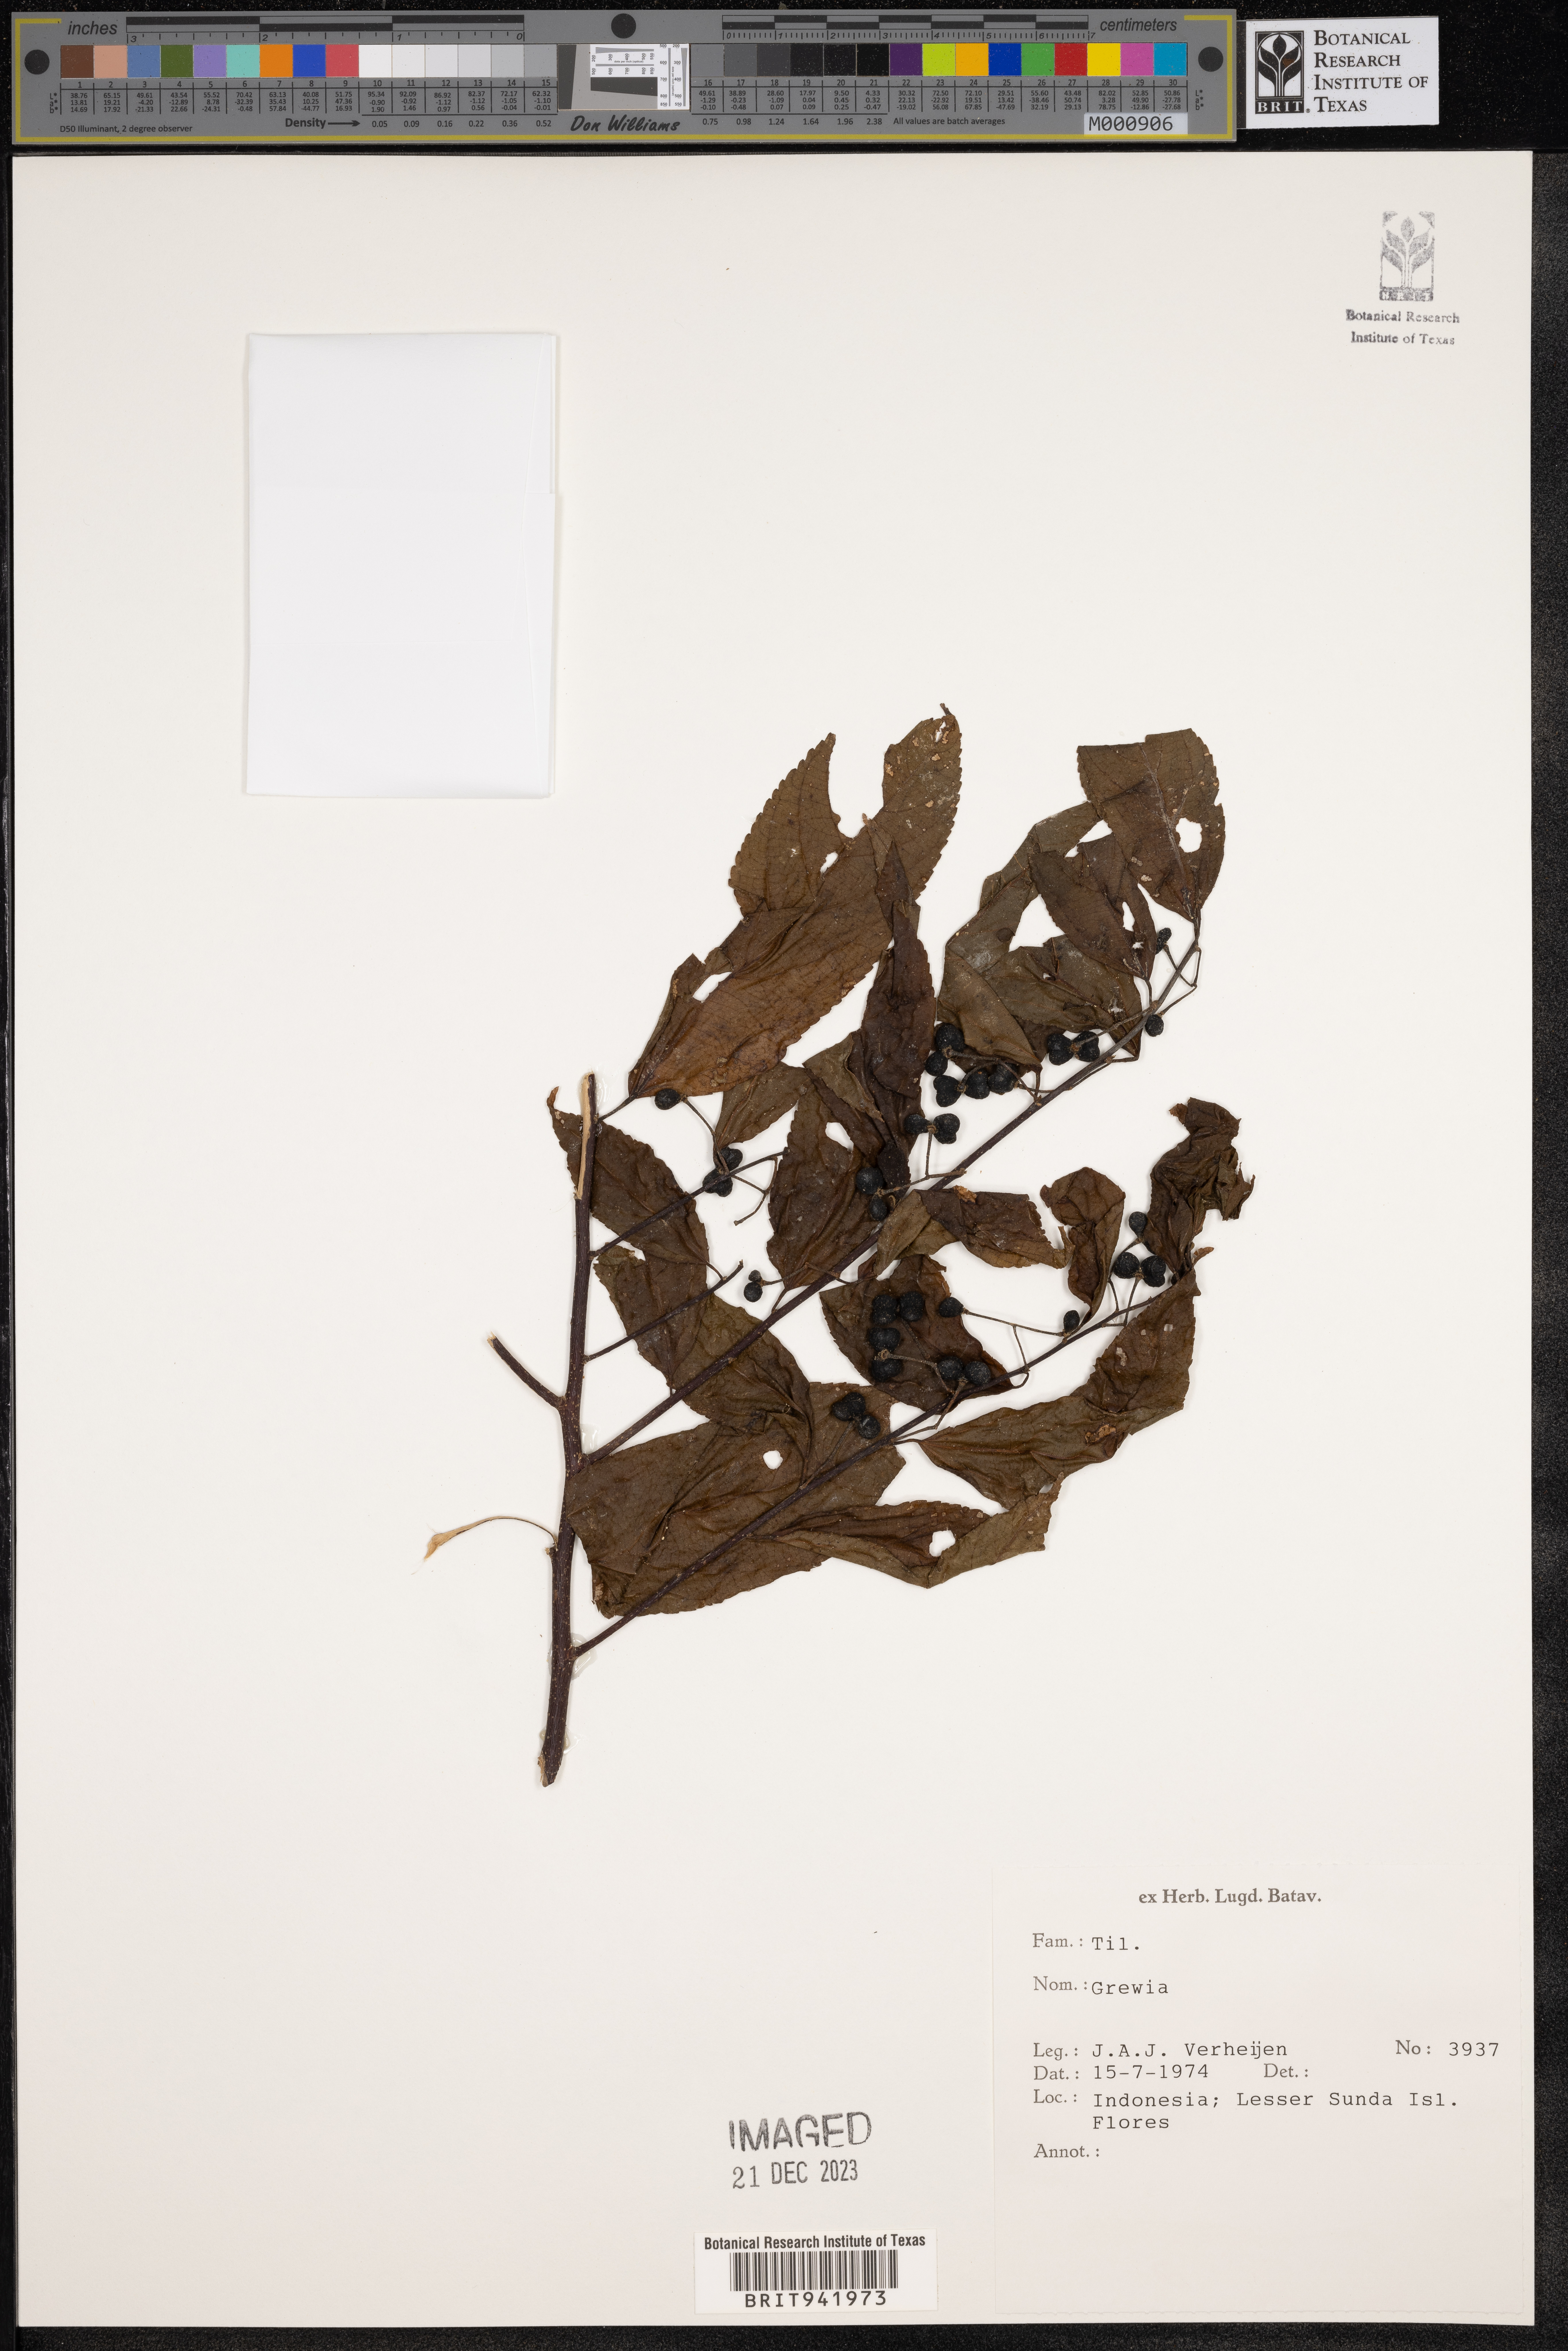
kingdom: Plantae
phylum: Tracheophyta
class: Magnoliopsida
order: Malvales
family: Malvaceae
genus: Grewia
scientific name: Grewia
